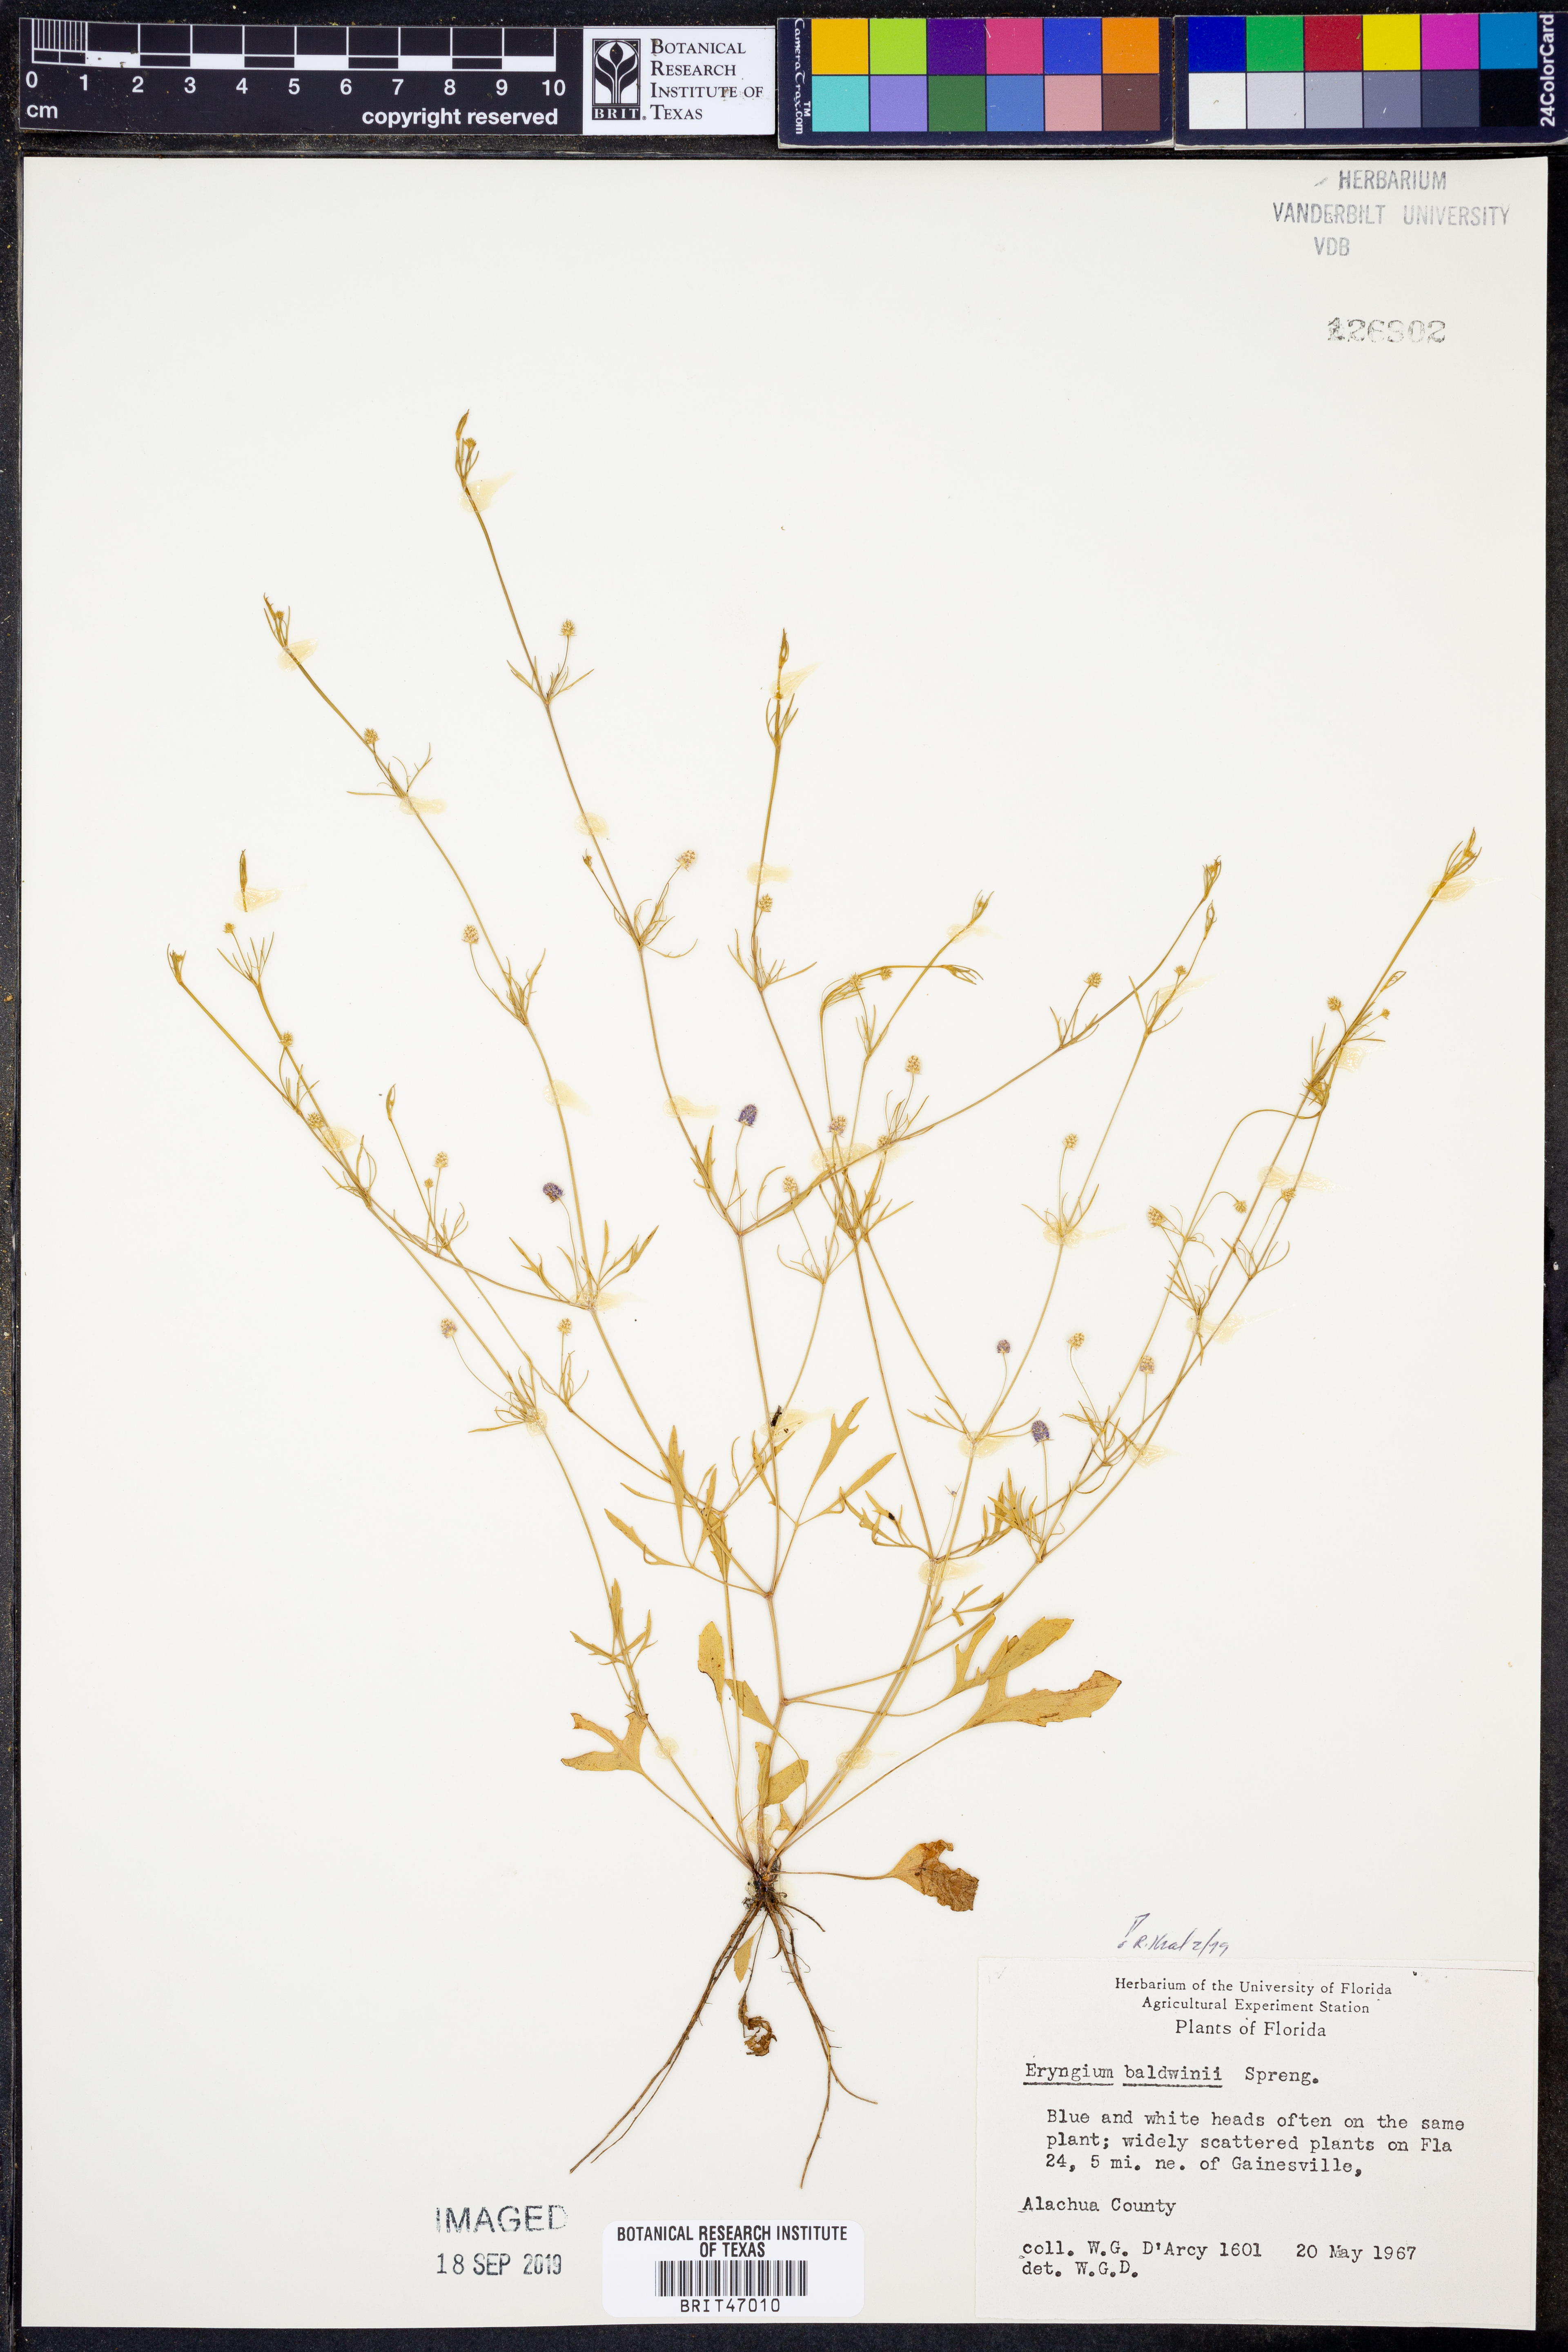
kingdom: Plantae
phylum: Tracheophyta
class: Magnoliopsida
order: Apiales
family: Apiaceae
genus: Eryngium
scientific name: Eryngium baldwinii
